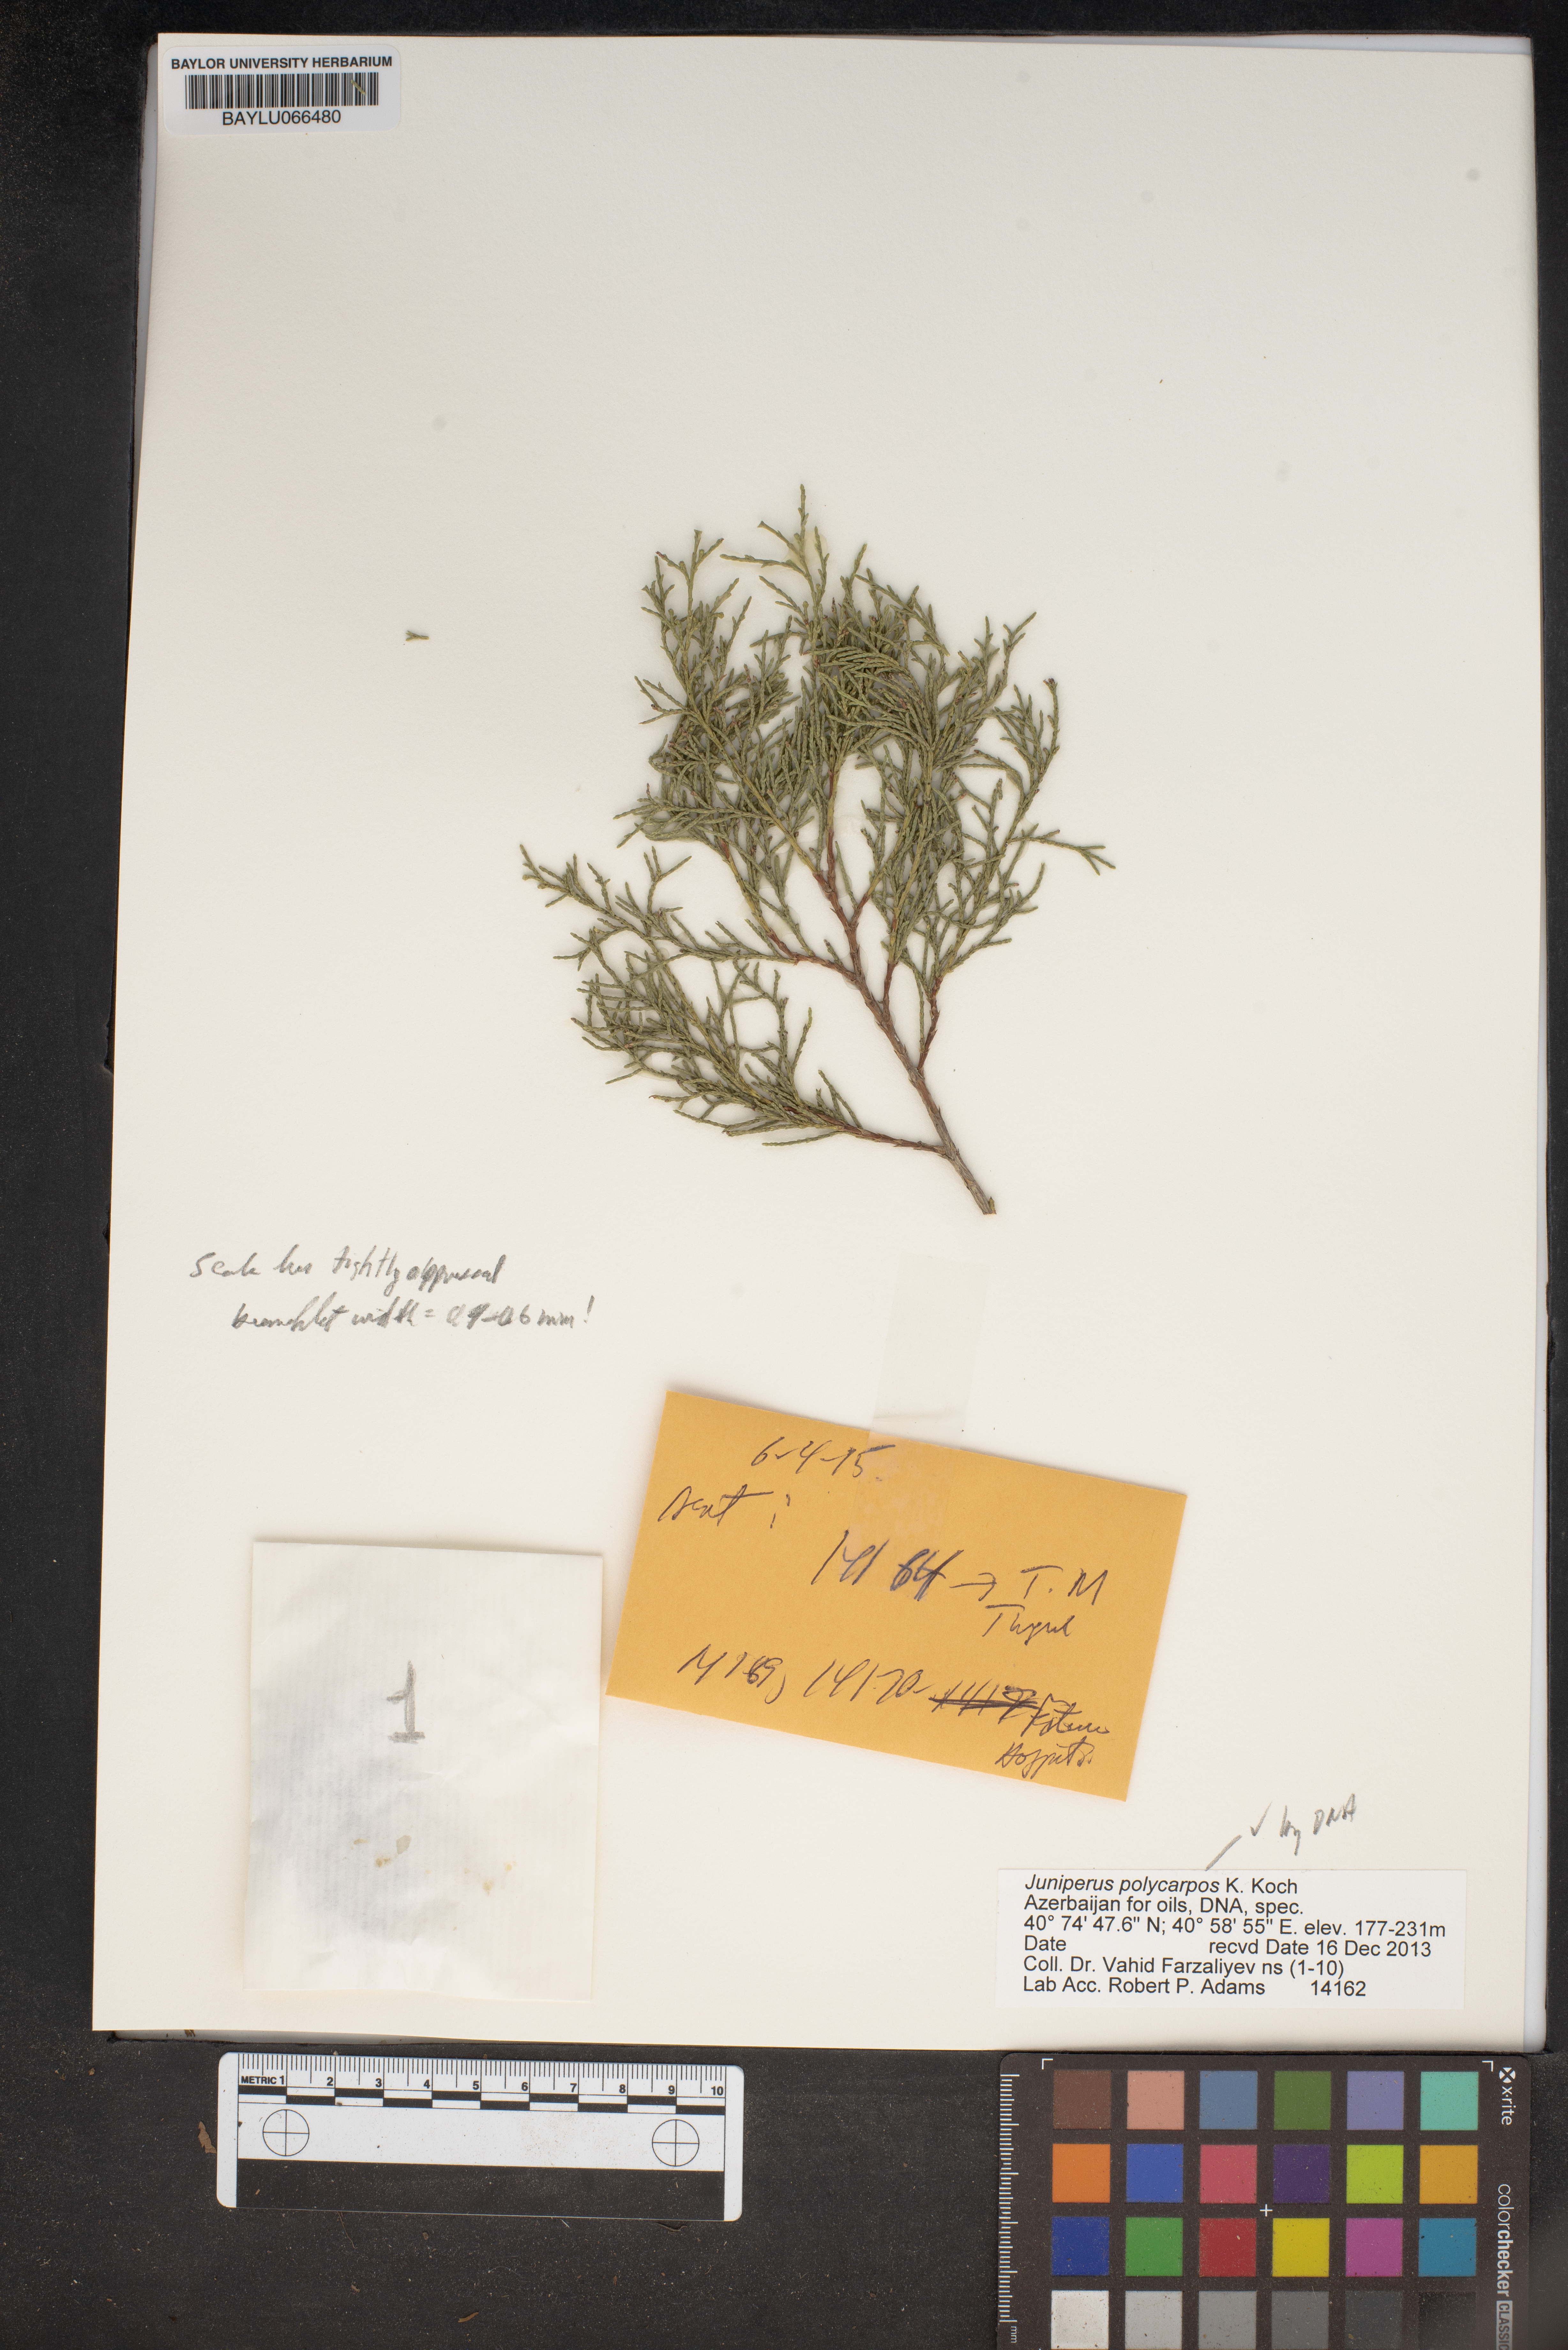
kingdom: Plantae
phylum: Tracheophyta
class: Pinopsida
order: Pinales
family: Cupressaceae
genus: Juniperus
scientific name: Juniperus excelsa
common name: Crimean juniper
